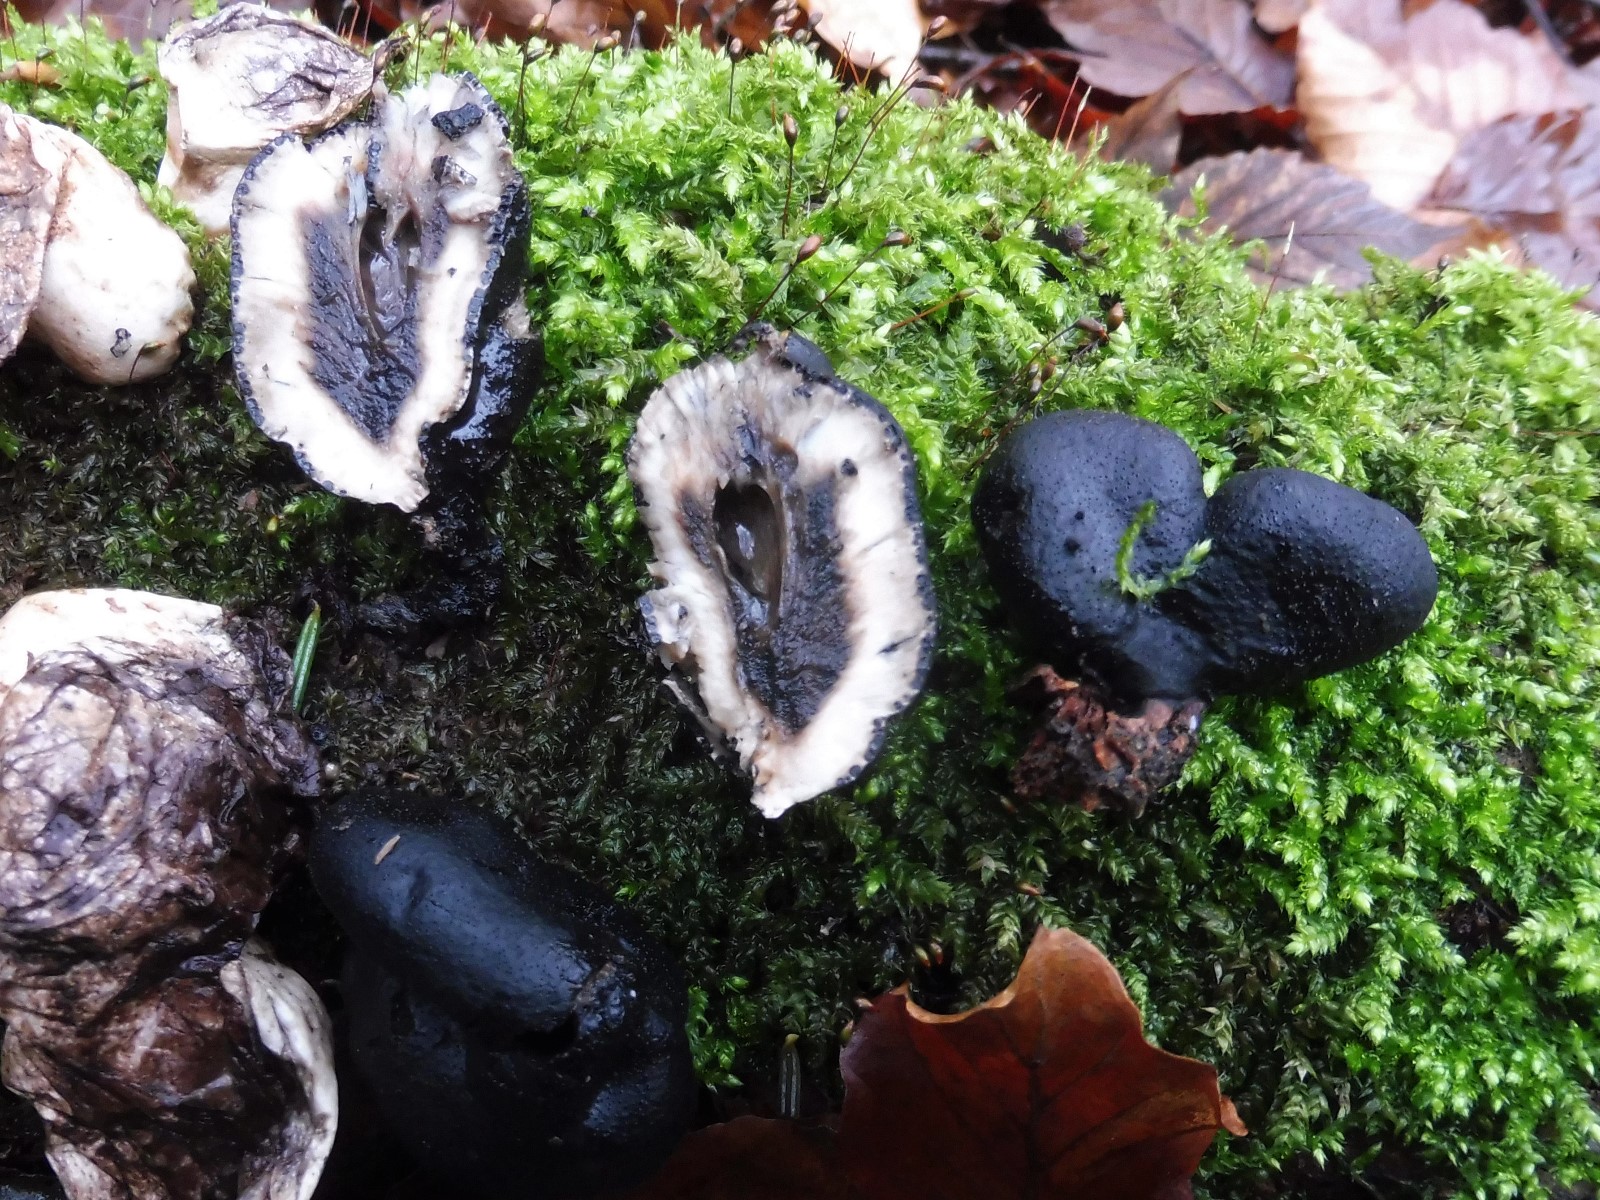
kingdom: Fungi
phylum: Ascomycota
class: Sordariomycetes
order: Xylariales
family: Xylariaceae
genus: Xylaria
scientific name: Xylaria polymorpha
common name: kølle-stødsvamp
